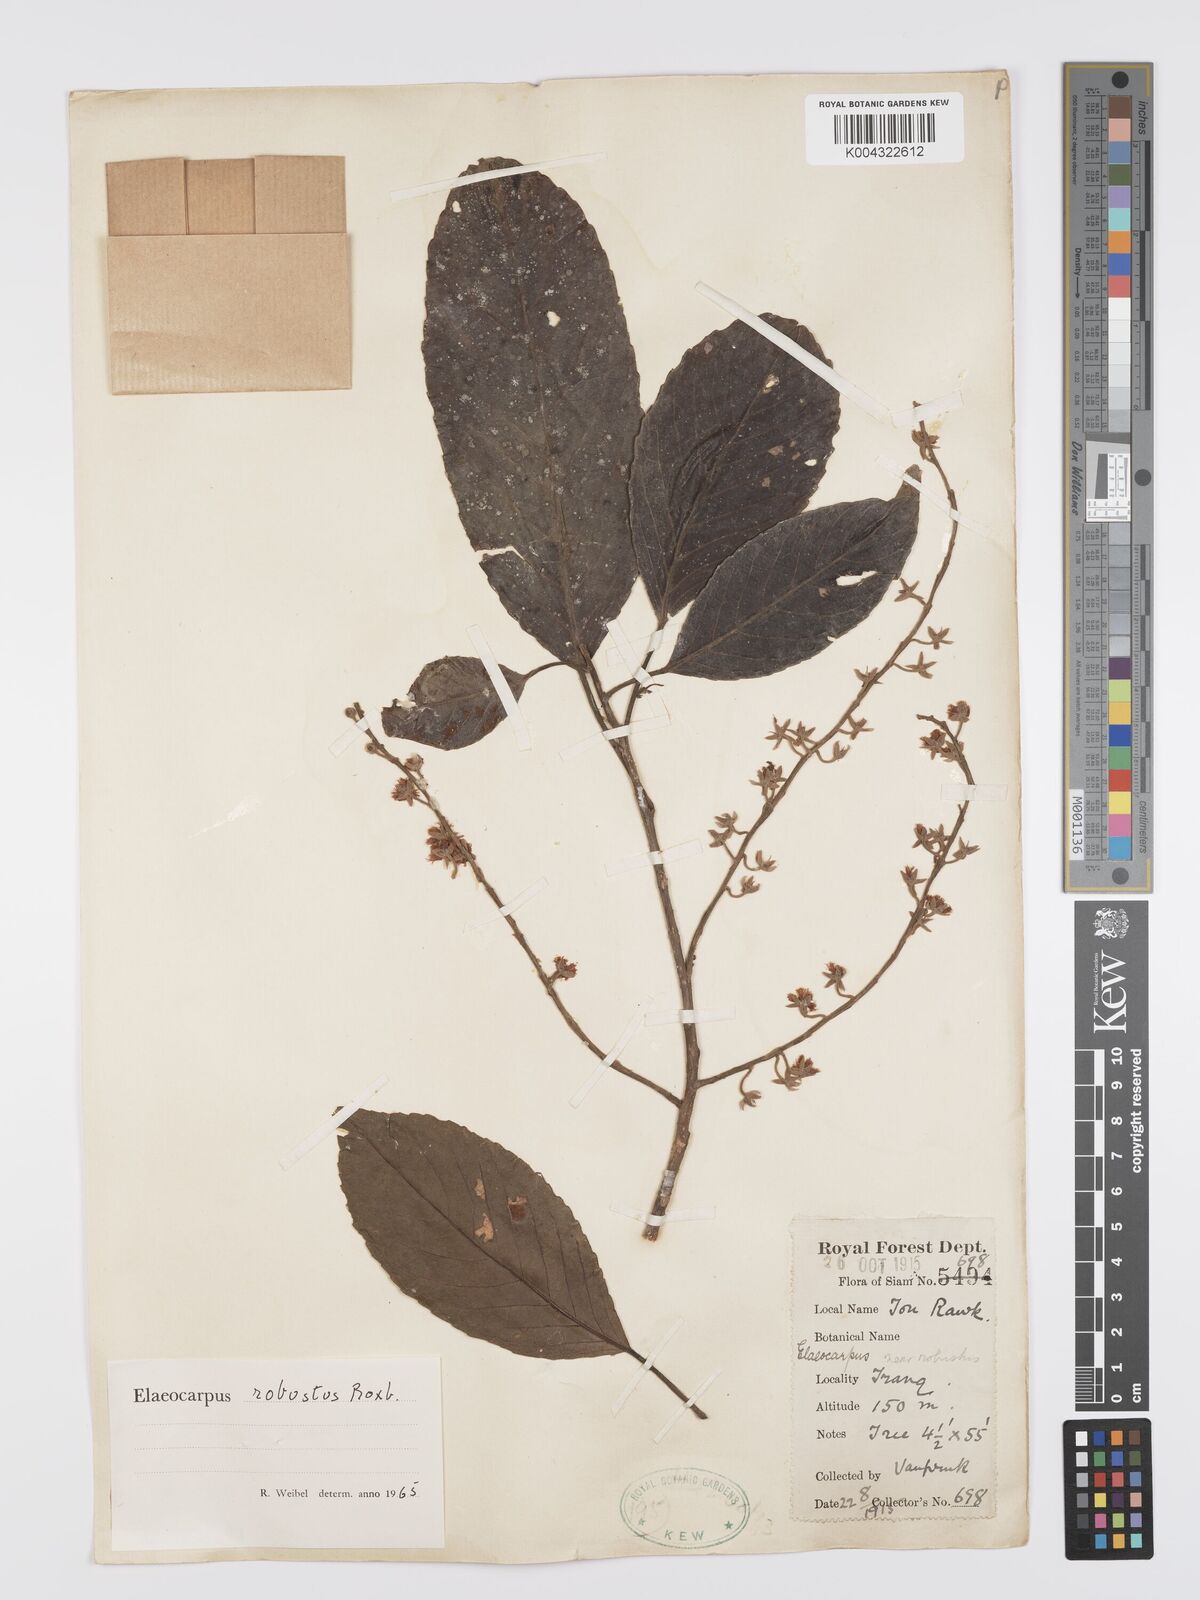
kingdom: Plantae
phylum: Tracheophyta
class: Magnoliopsida
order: Oxalidales
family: Elaeocarpaceae
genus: Elaeocarpus
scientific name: Elaeocarpus robustus
